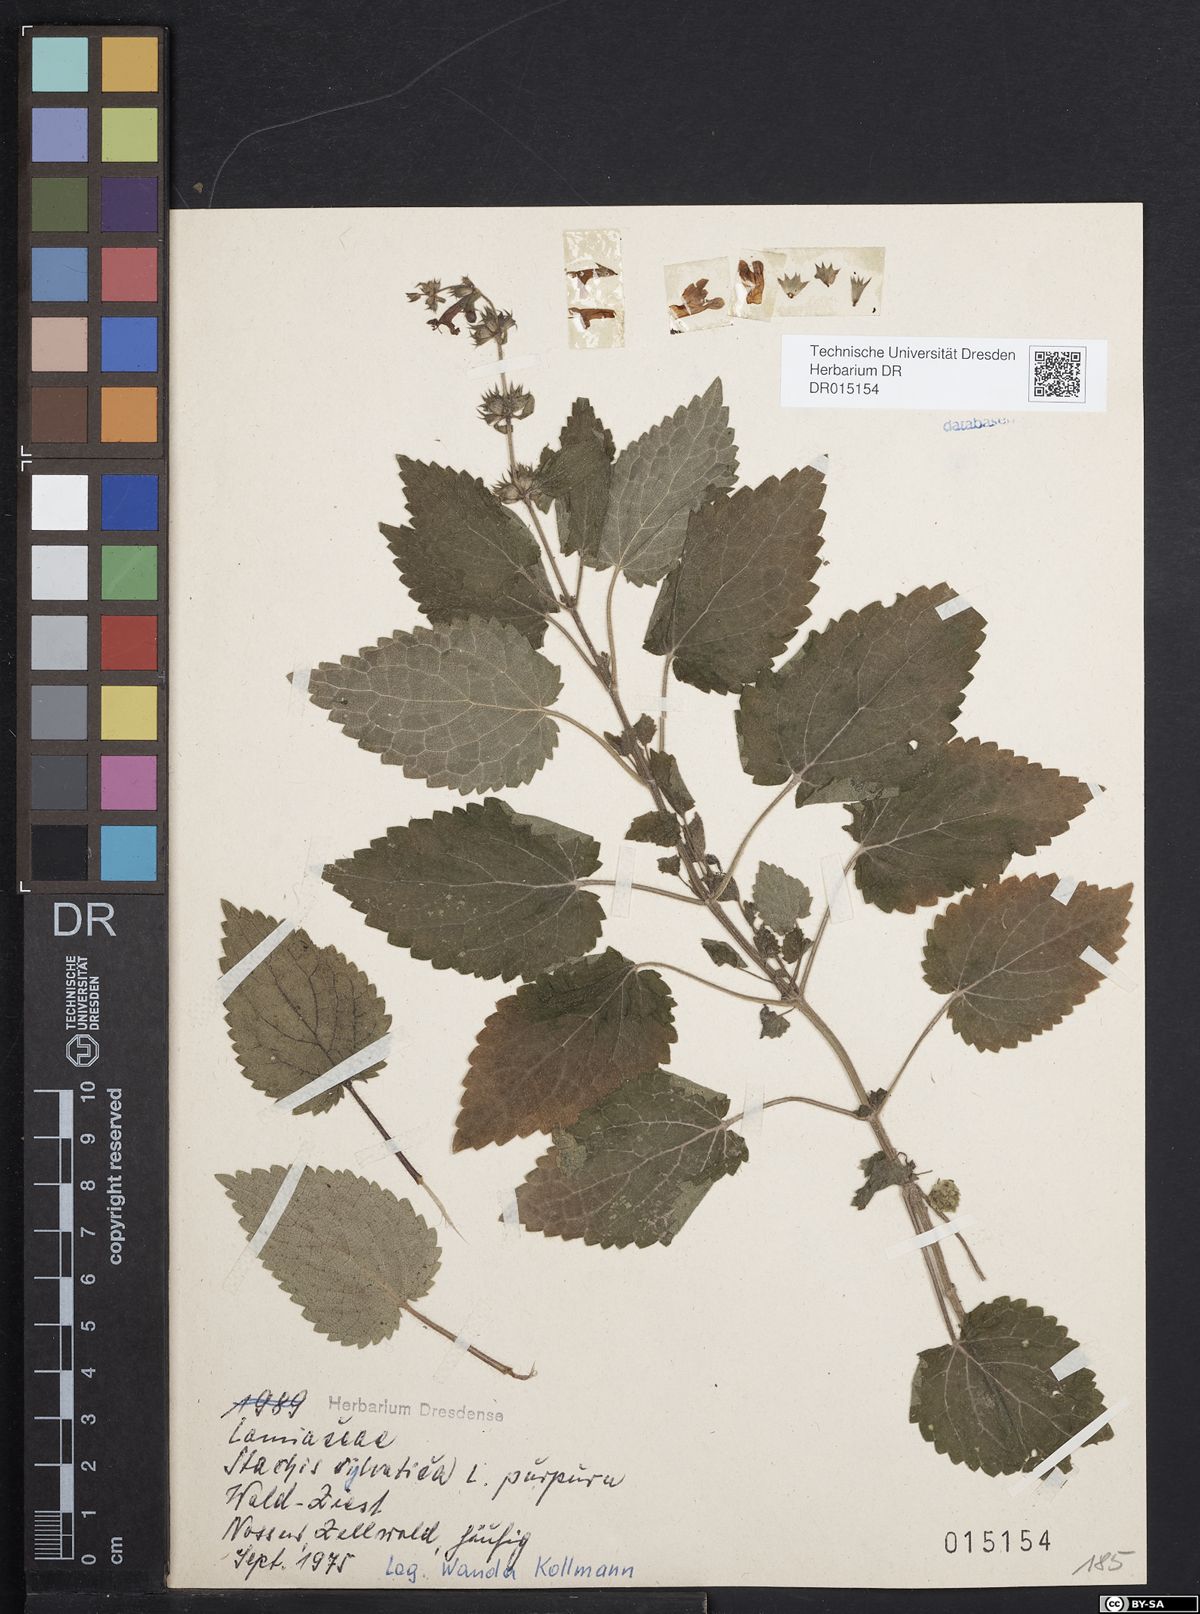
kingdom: Plantae
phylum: Tracheophyta
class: Magnoliopsida
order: Lamiales
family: Lamiaceae
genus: Stachys
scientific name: Stachys sylvatica
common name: Hedge woundwort
